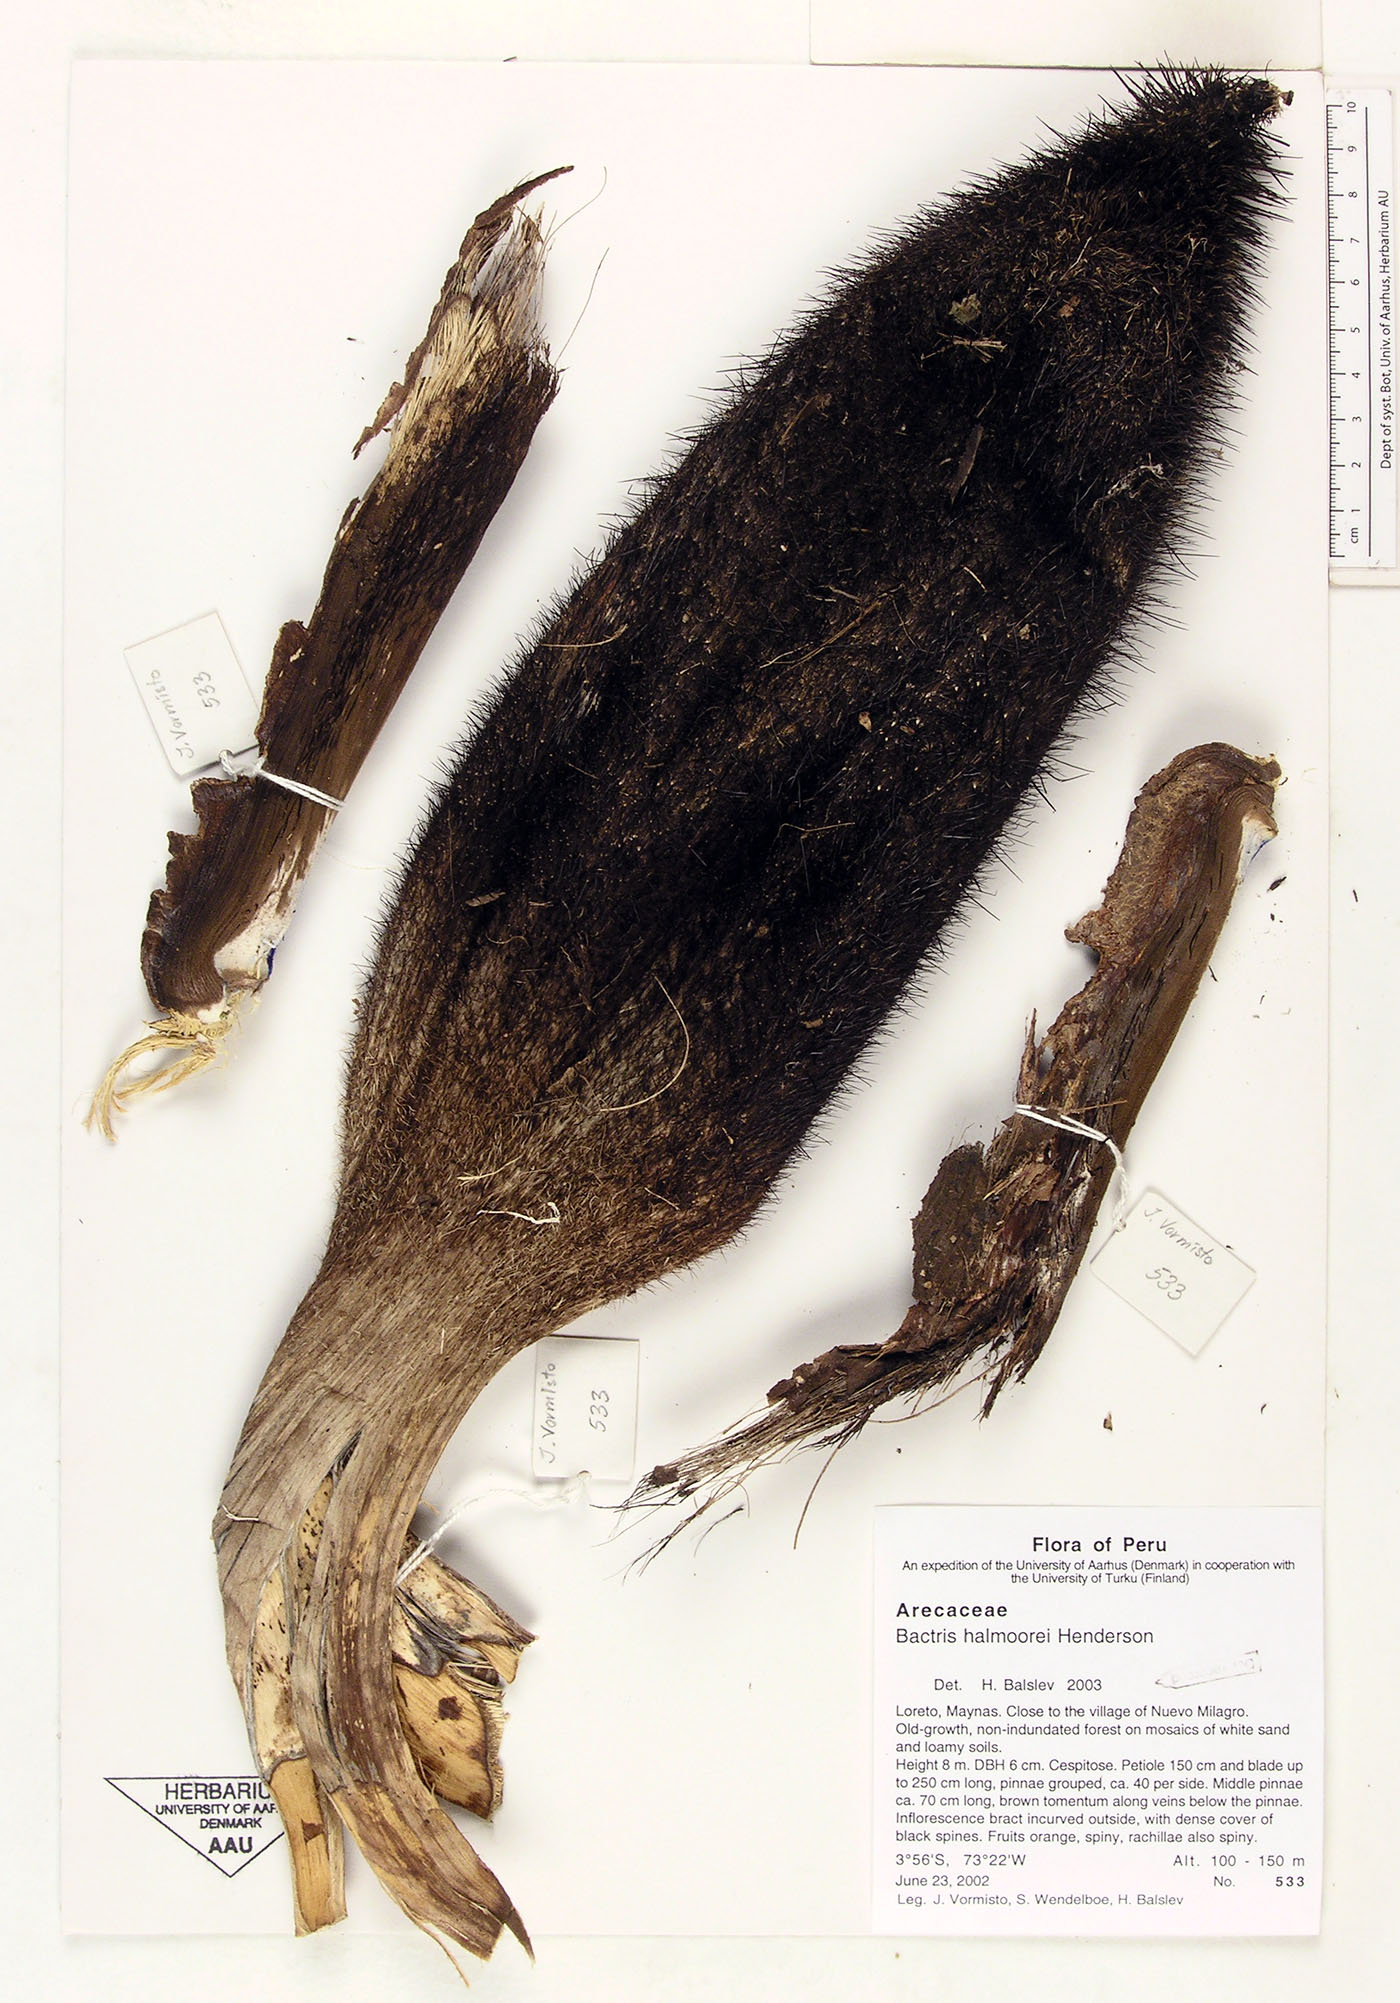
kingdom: Plantae
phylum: Tracheophyta
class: Liliopsida
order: Arecales
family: Arecaceae
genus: Bactris
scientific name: Bactris halmoorei
